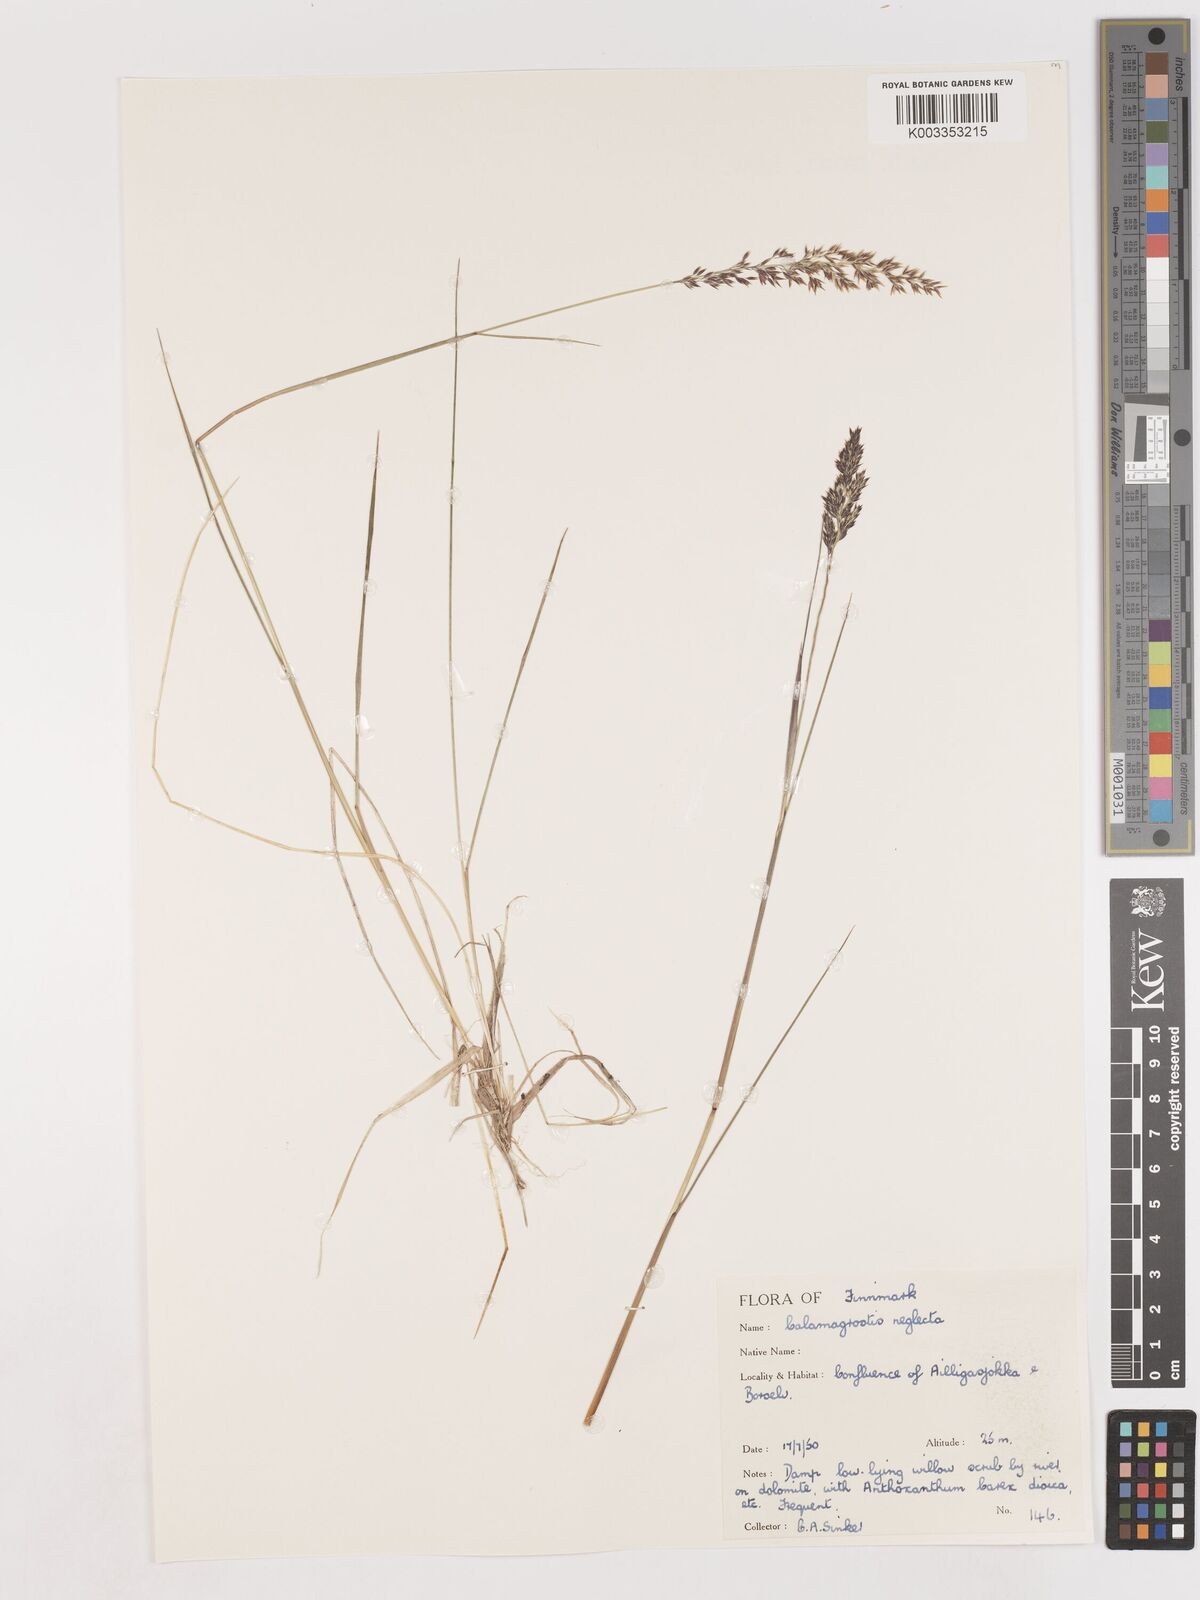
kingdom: Plantae
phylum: Tracheophyta
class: Liliopsida
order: Poales
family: Poaceae
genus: Cinnagrostis
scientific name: Cinnagrostis recta
